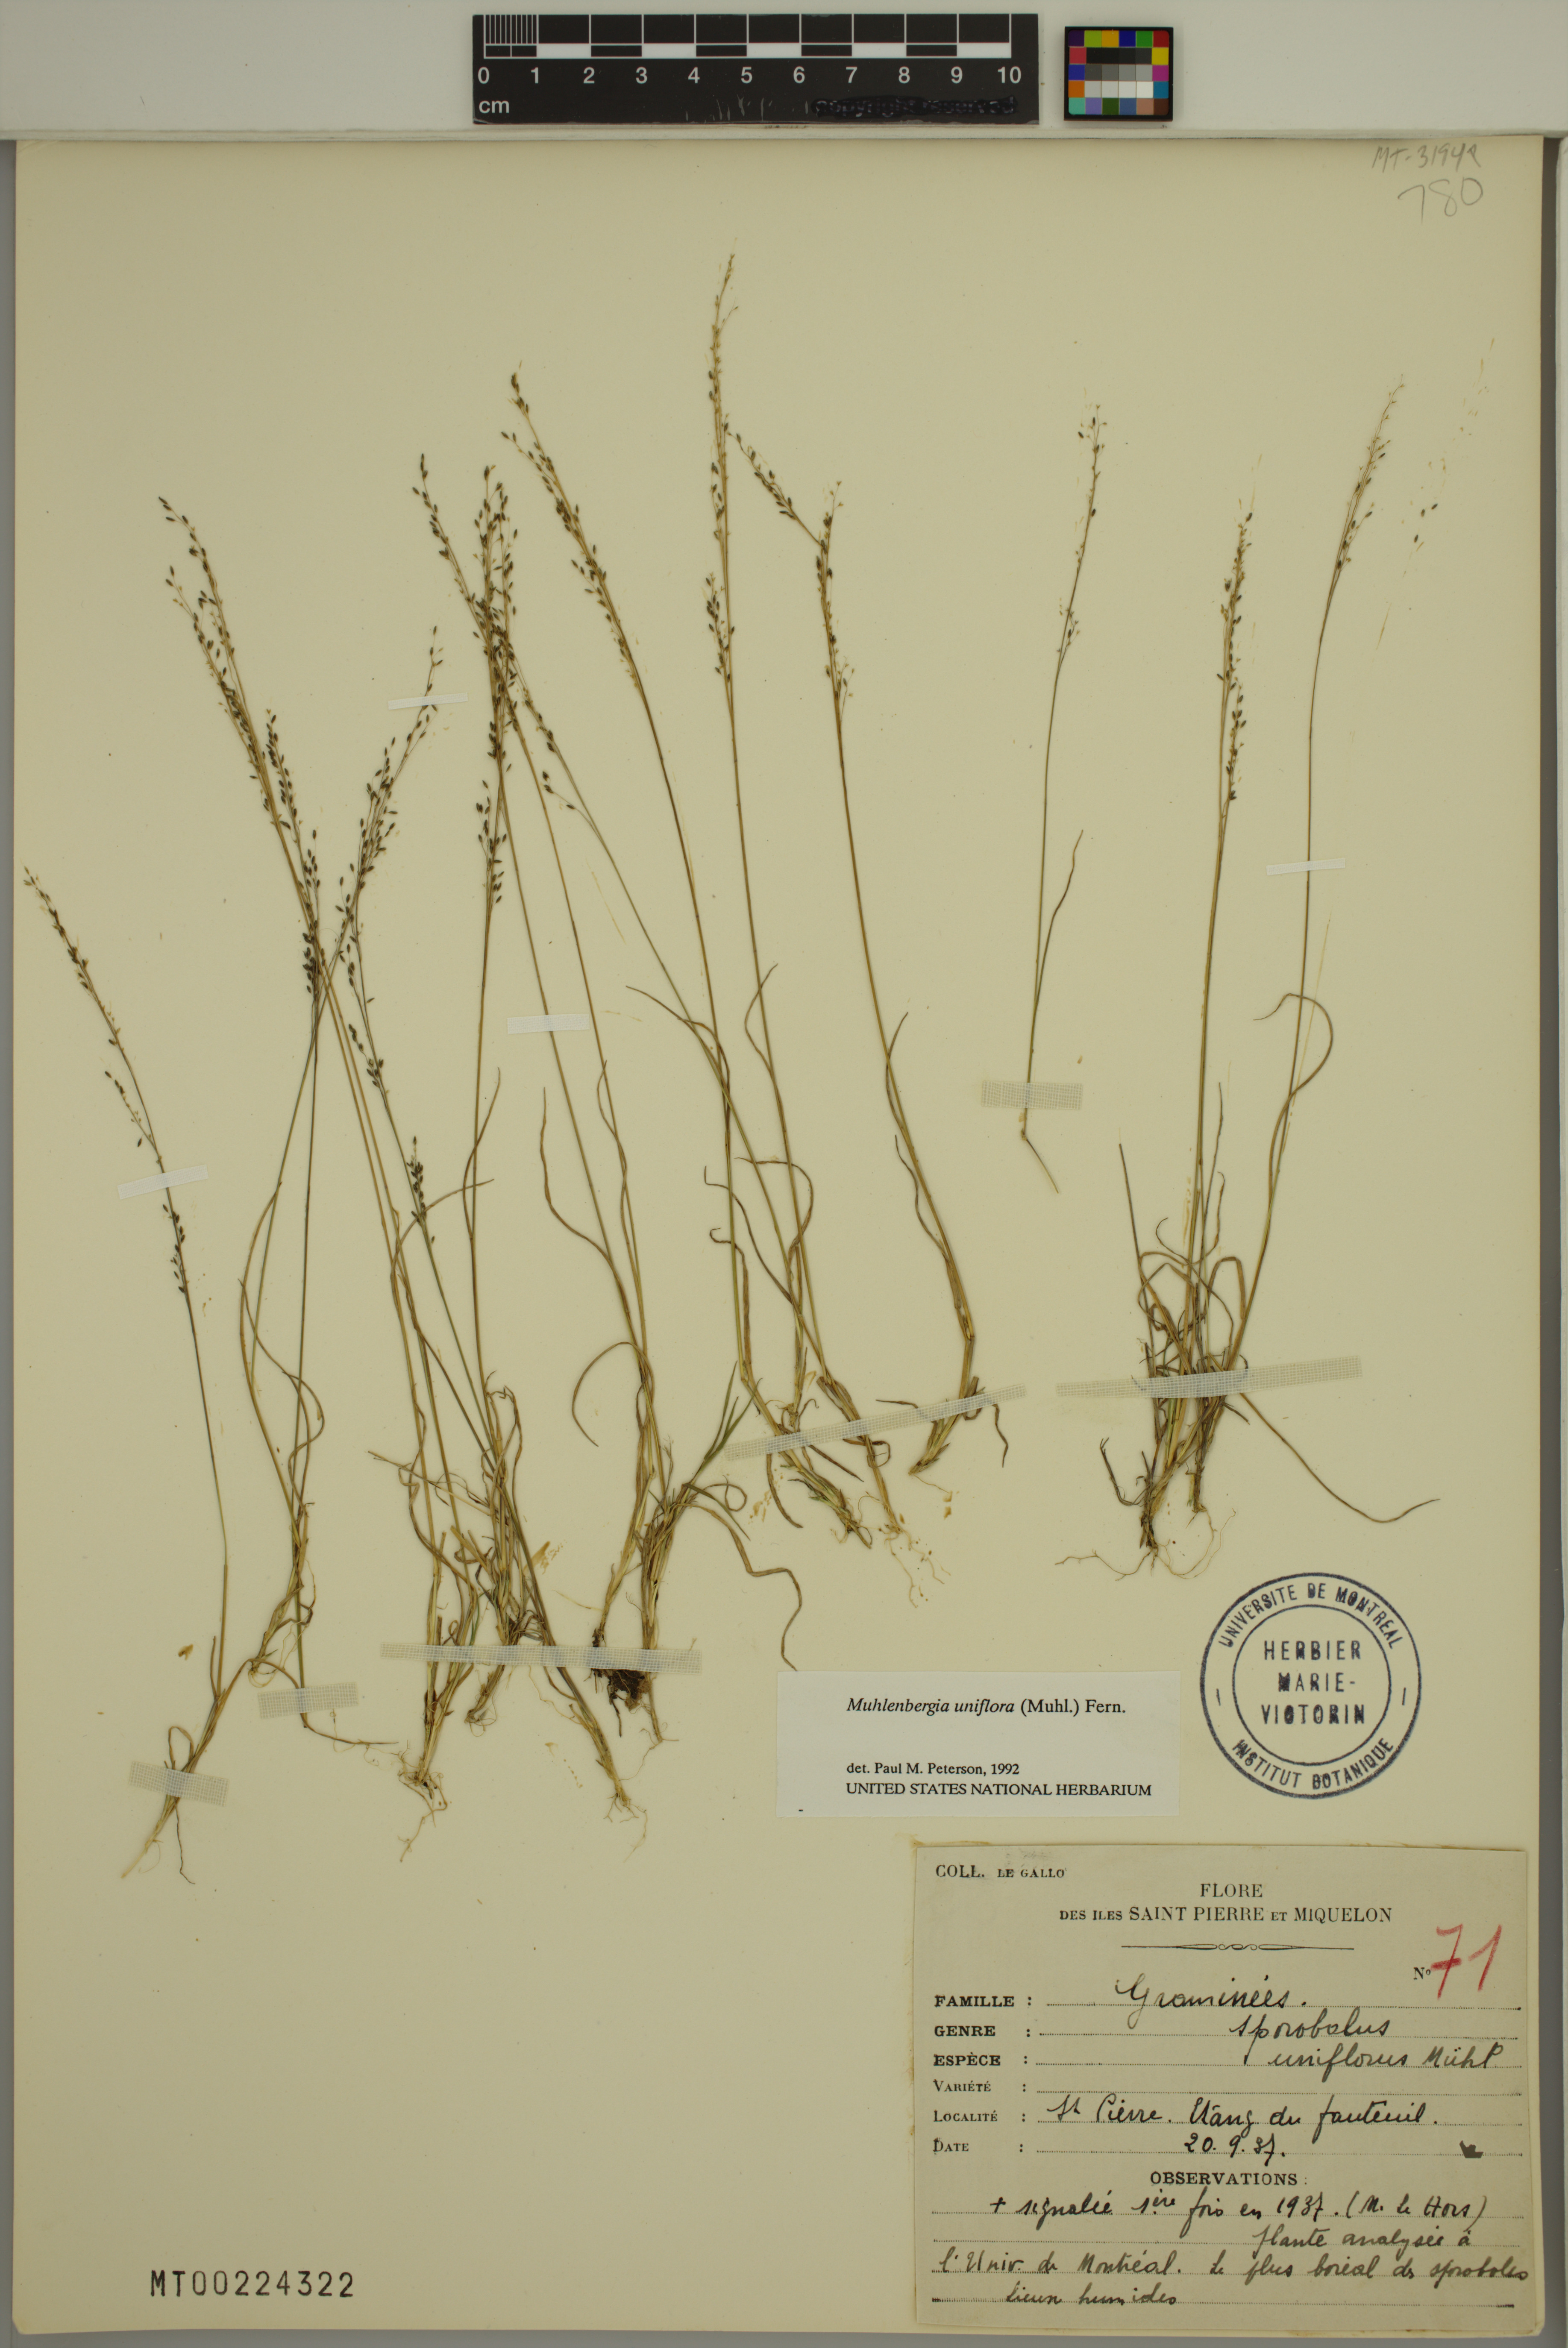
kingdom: Plantae
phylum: Tracheophyta
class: Liliopsida
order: Poales
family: Poaceae
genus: Muhlenbergia
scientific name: Muhlenbergia uniflora
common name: Bog muhly
